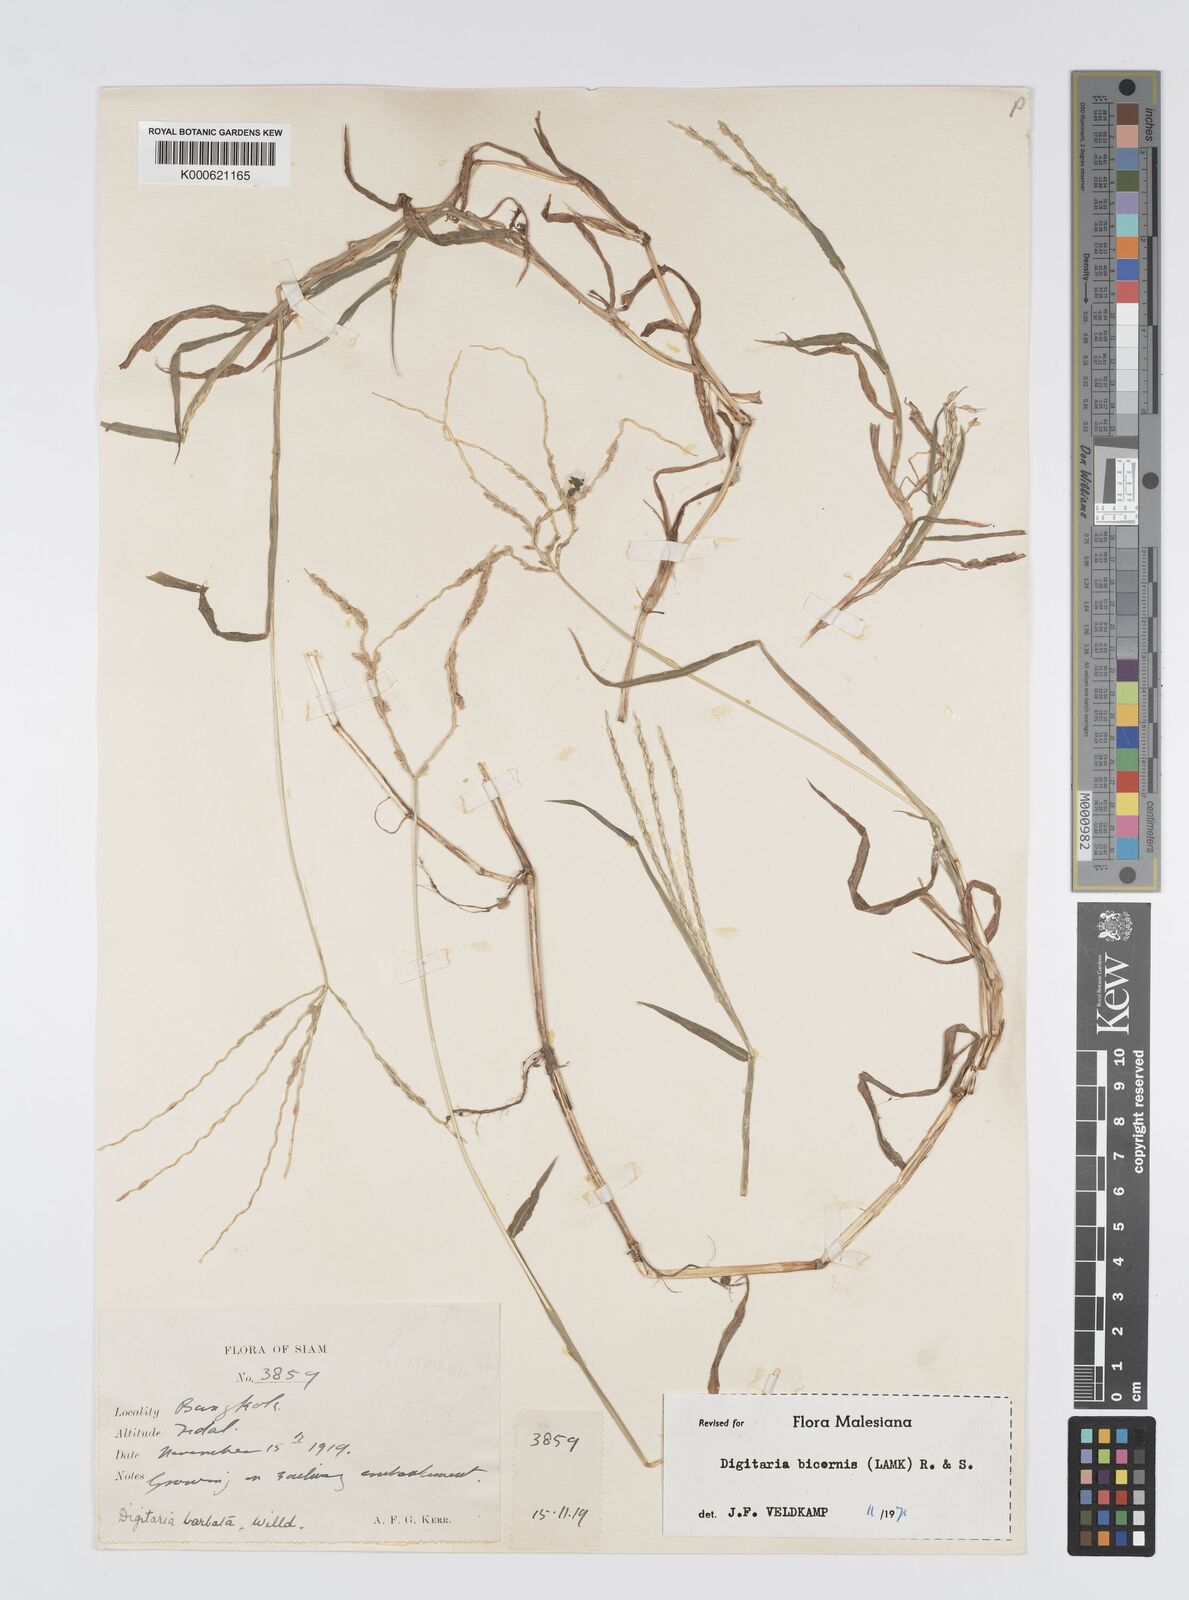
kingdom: Plantae
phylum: Tracheophyta
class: Liliopsida
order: Poales
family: Poaceae
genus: Digitaria
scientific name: Digitaria bicornis
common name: Asian crabgrass
